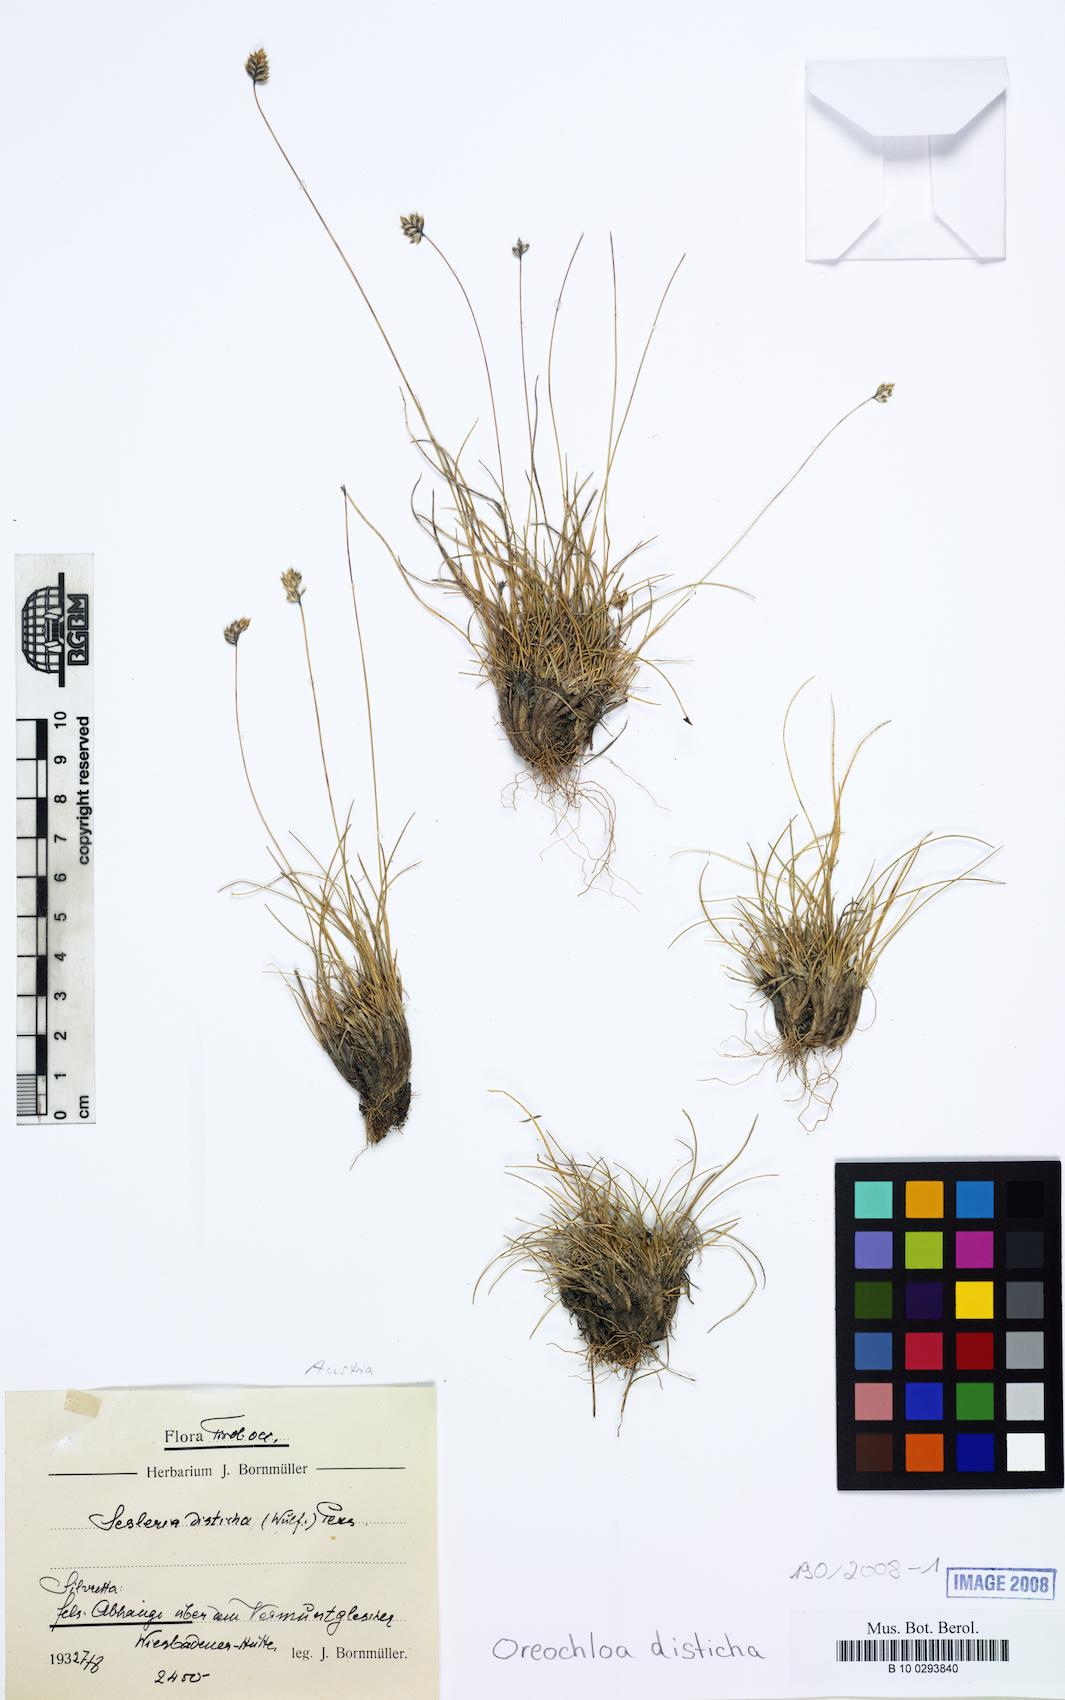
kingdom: Plantae
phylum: Tracheophyta
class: Liliopsida
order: Poales
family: Poaceae
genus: Oreochloa
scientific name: Oreochloa disticha
